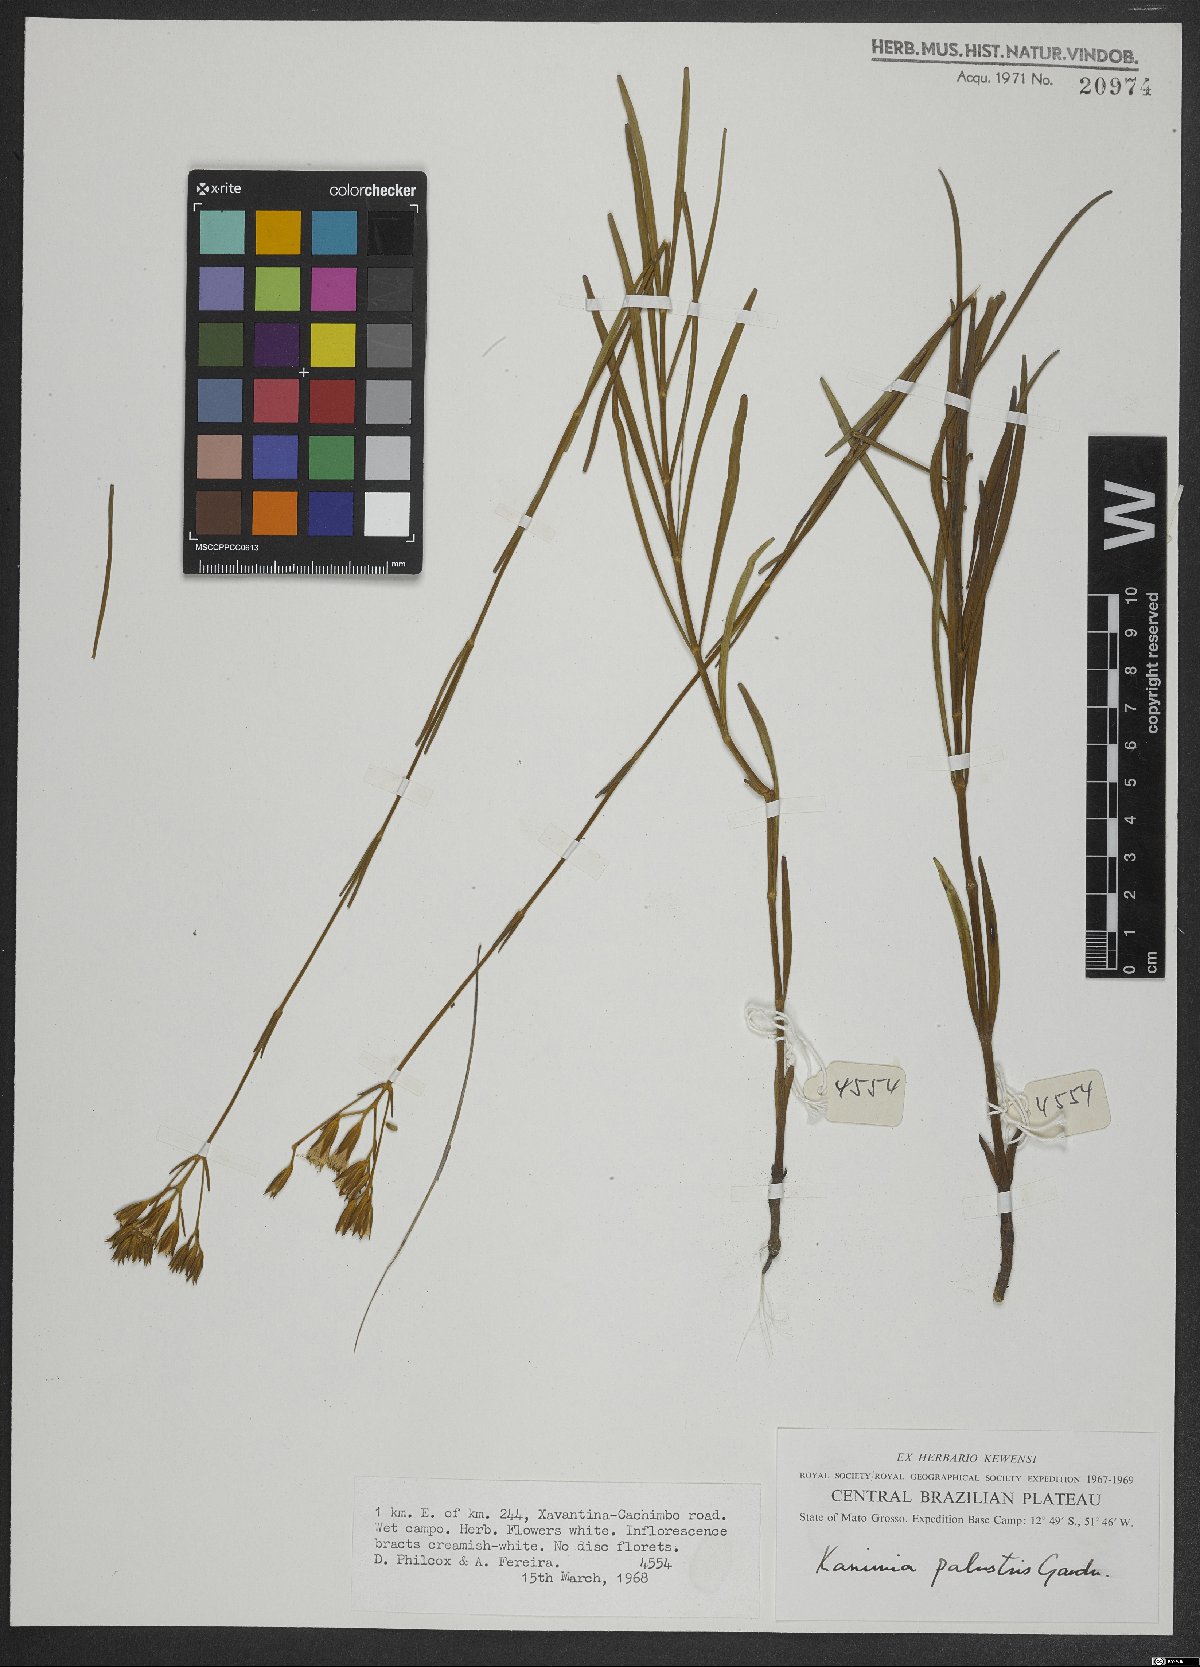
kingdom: Plantae
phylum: Tracheophyta
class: Magnoliopsida
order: Asterales
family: Asteraceae
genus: Mikania
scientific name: Mikania palustris
